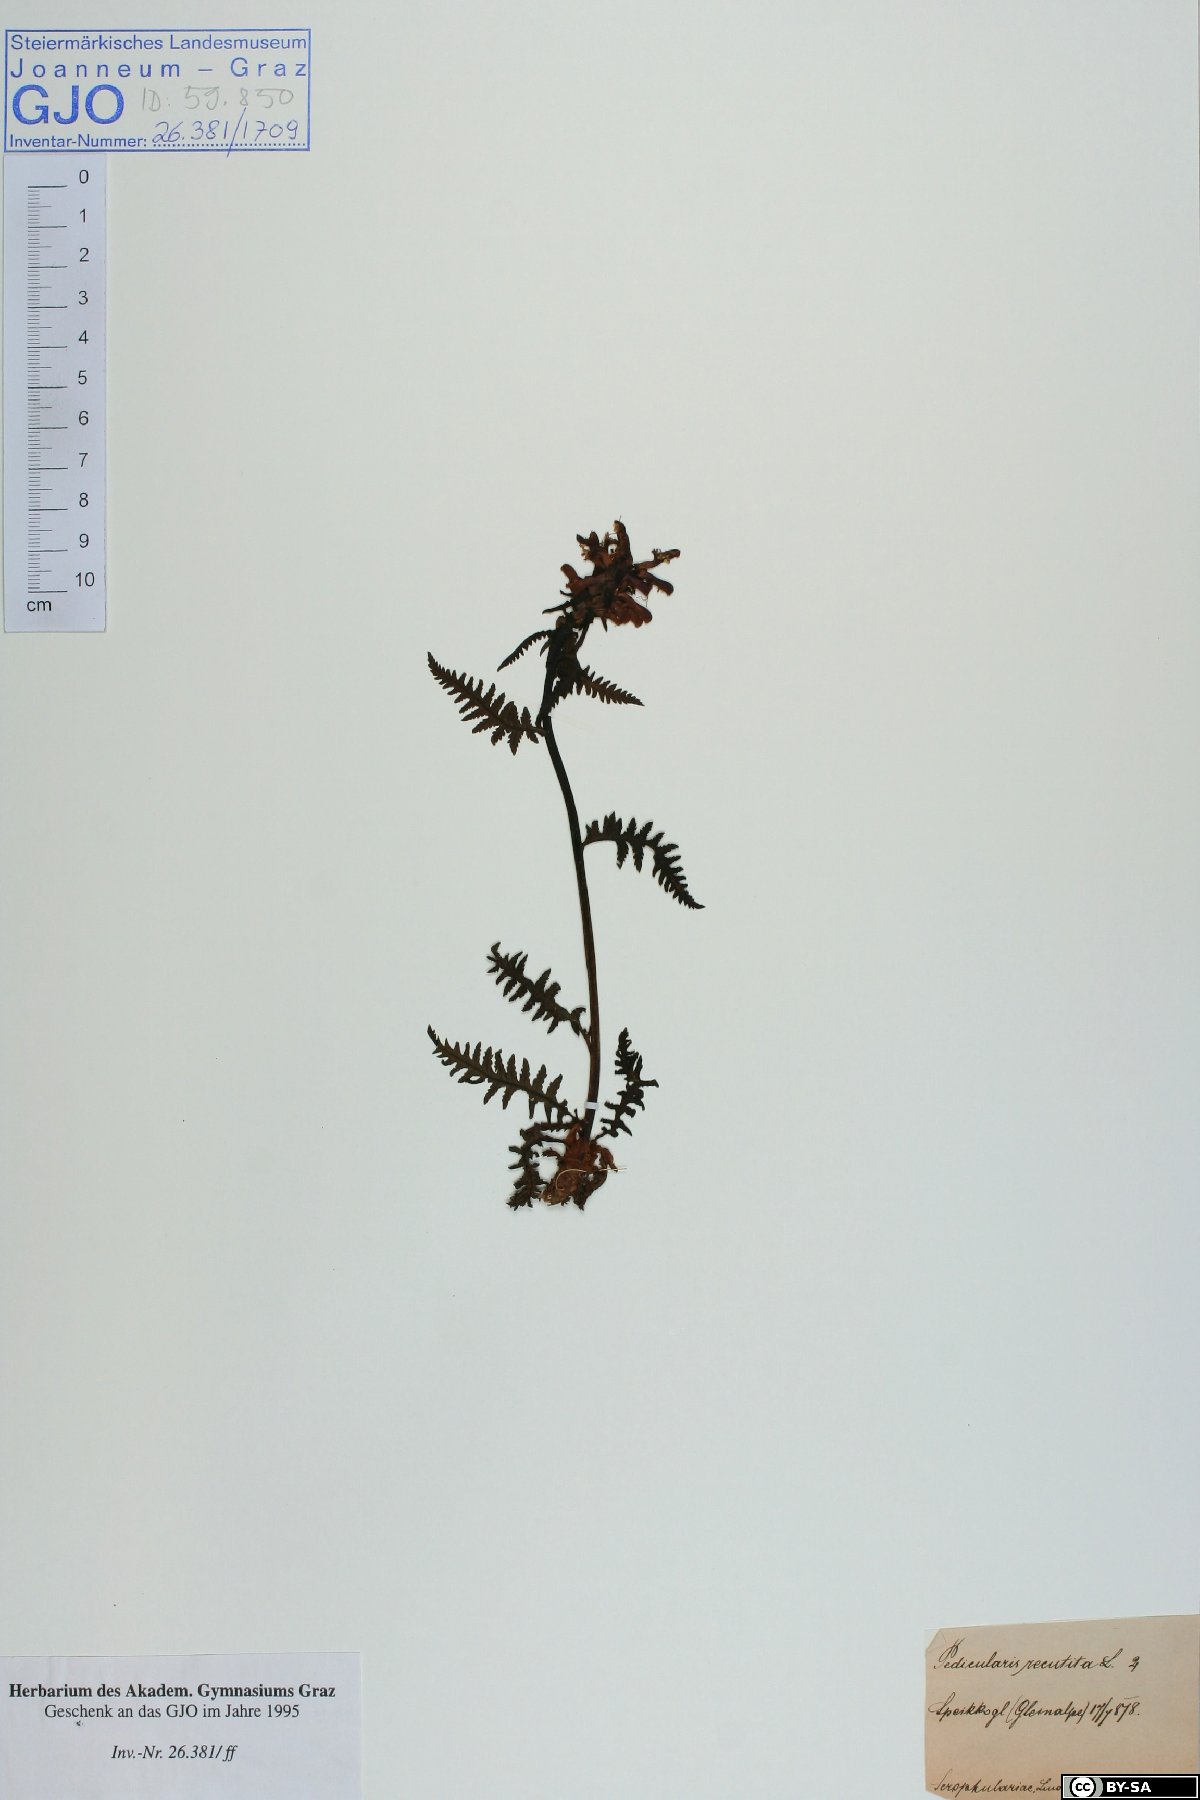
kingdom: Plantae
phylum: Tracheophyta
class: Magnoliopsida
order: Lamiales
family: Orobanchaceae
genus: Pedicularis
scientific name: Pedicularis recutita
